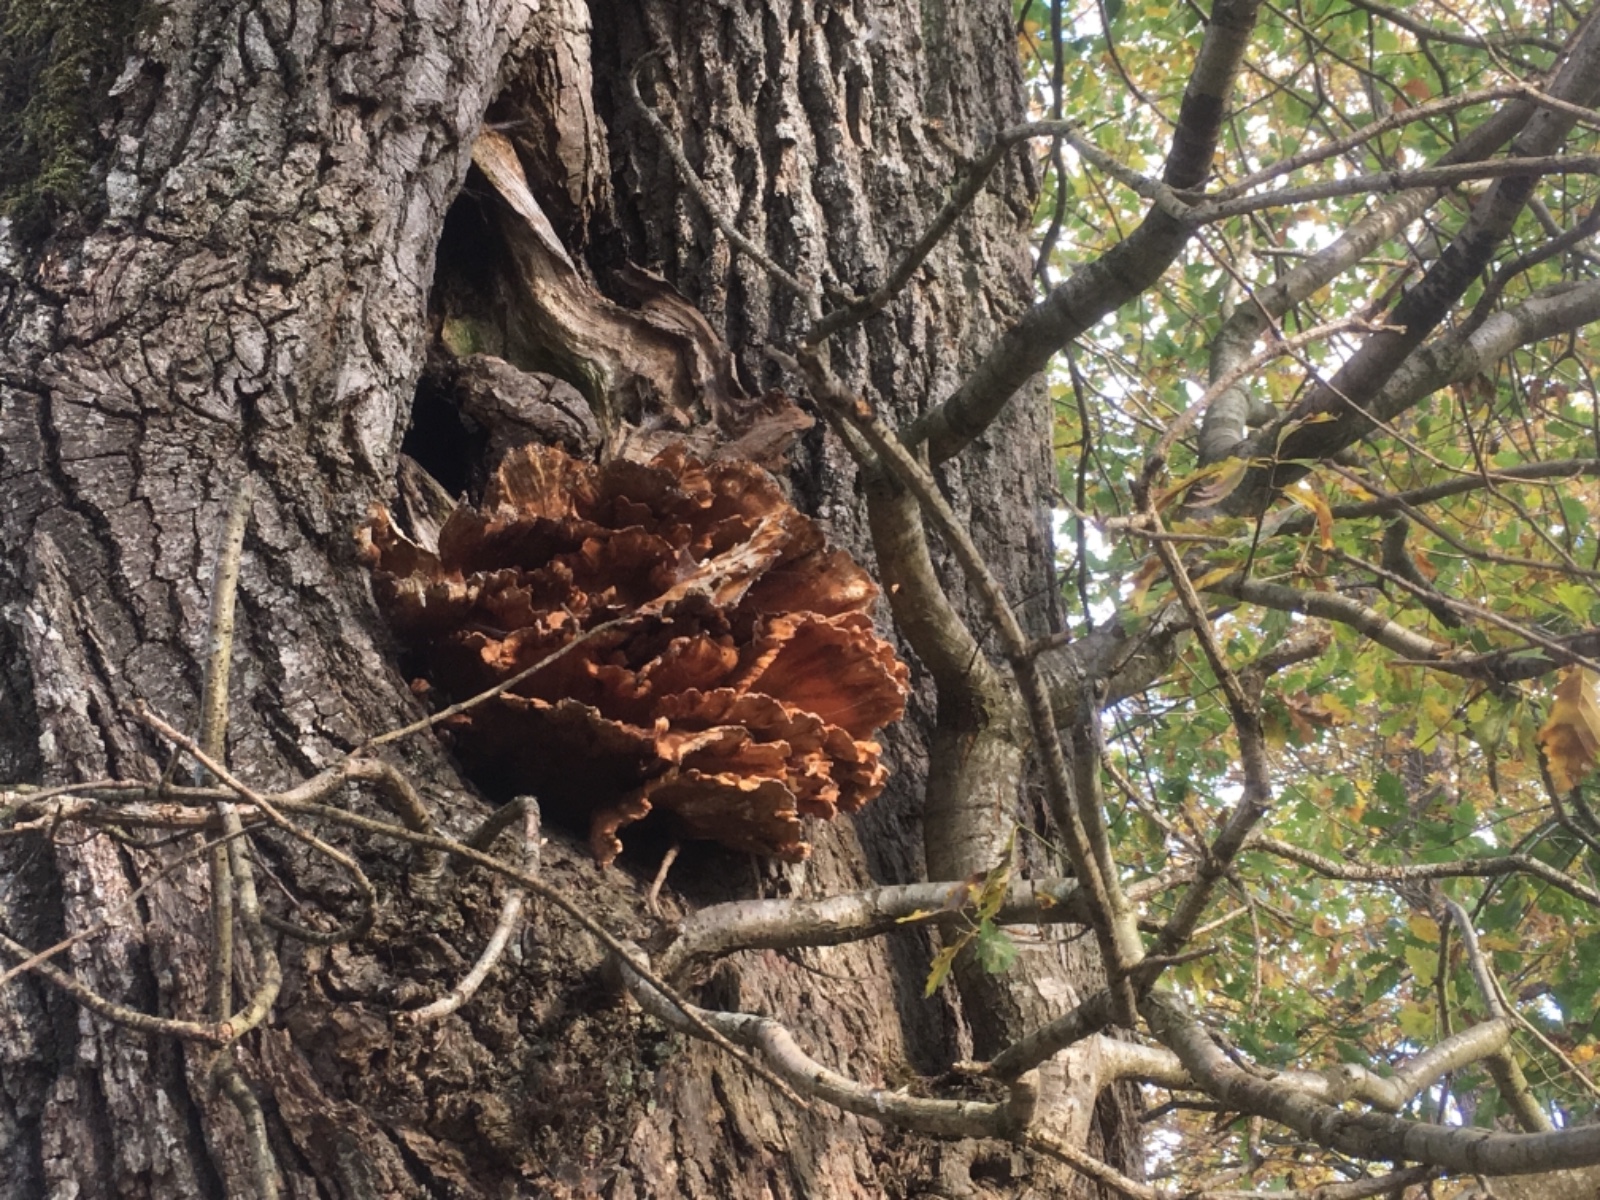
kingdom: Fungi
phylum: Basidiomycota
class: Agaricomycetes
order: Polyporales
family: Laetiporaceae
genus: Laetiporus
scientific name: Laetiporus sulphureus
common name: svovlporesvamp
